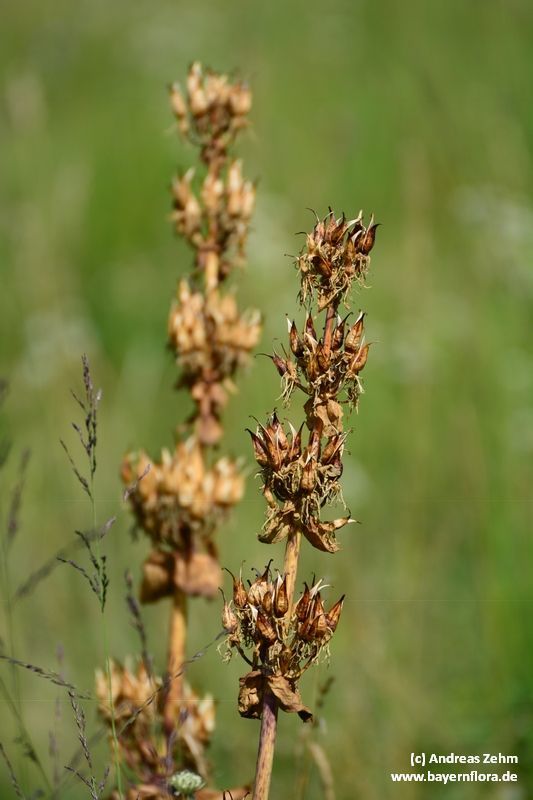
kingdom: Plantae
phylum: Tracheophyta
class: Magnoliopsida
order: Gentianales
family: Gentianaceae
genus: Gentiana
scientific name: Gentiana lutea
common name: Great yellow gentian
